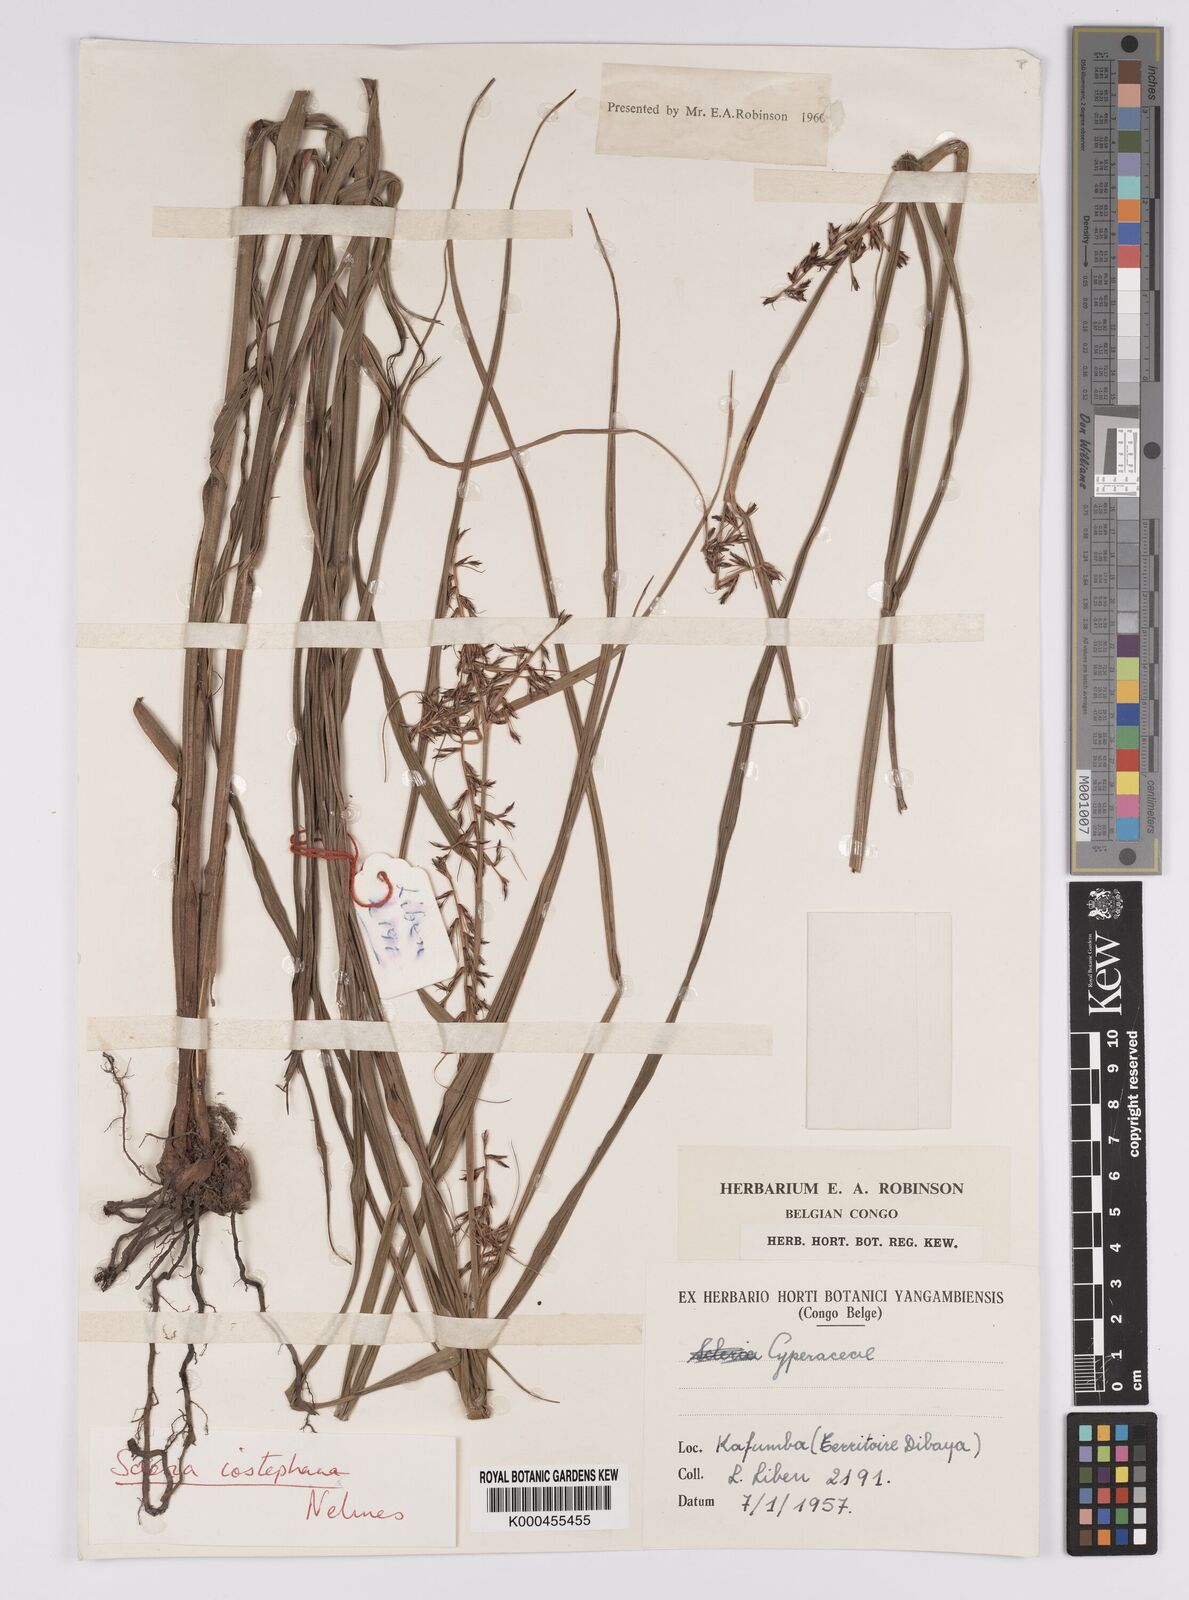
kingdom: Plantae
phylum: Tracheophyta
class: Liliopsida
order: Poales
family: Cyperaceae
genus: Scleria
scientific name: Scleria iostephana
